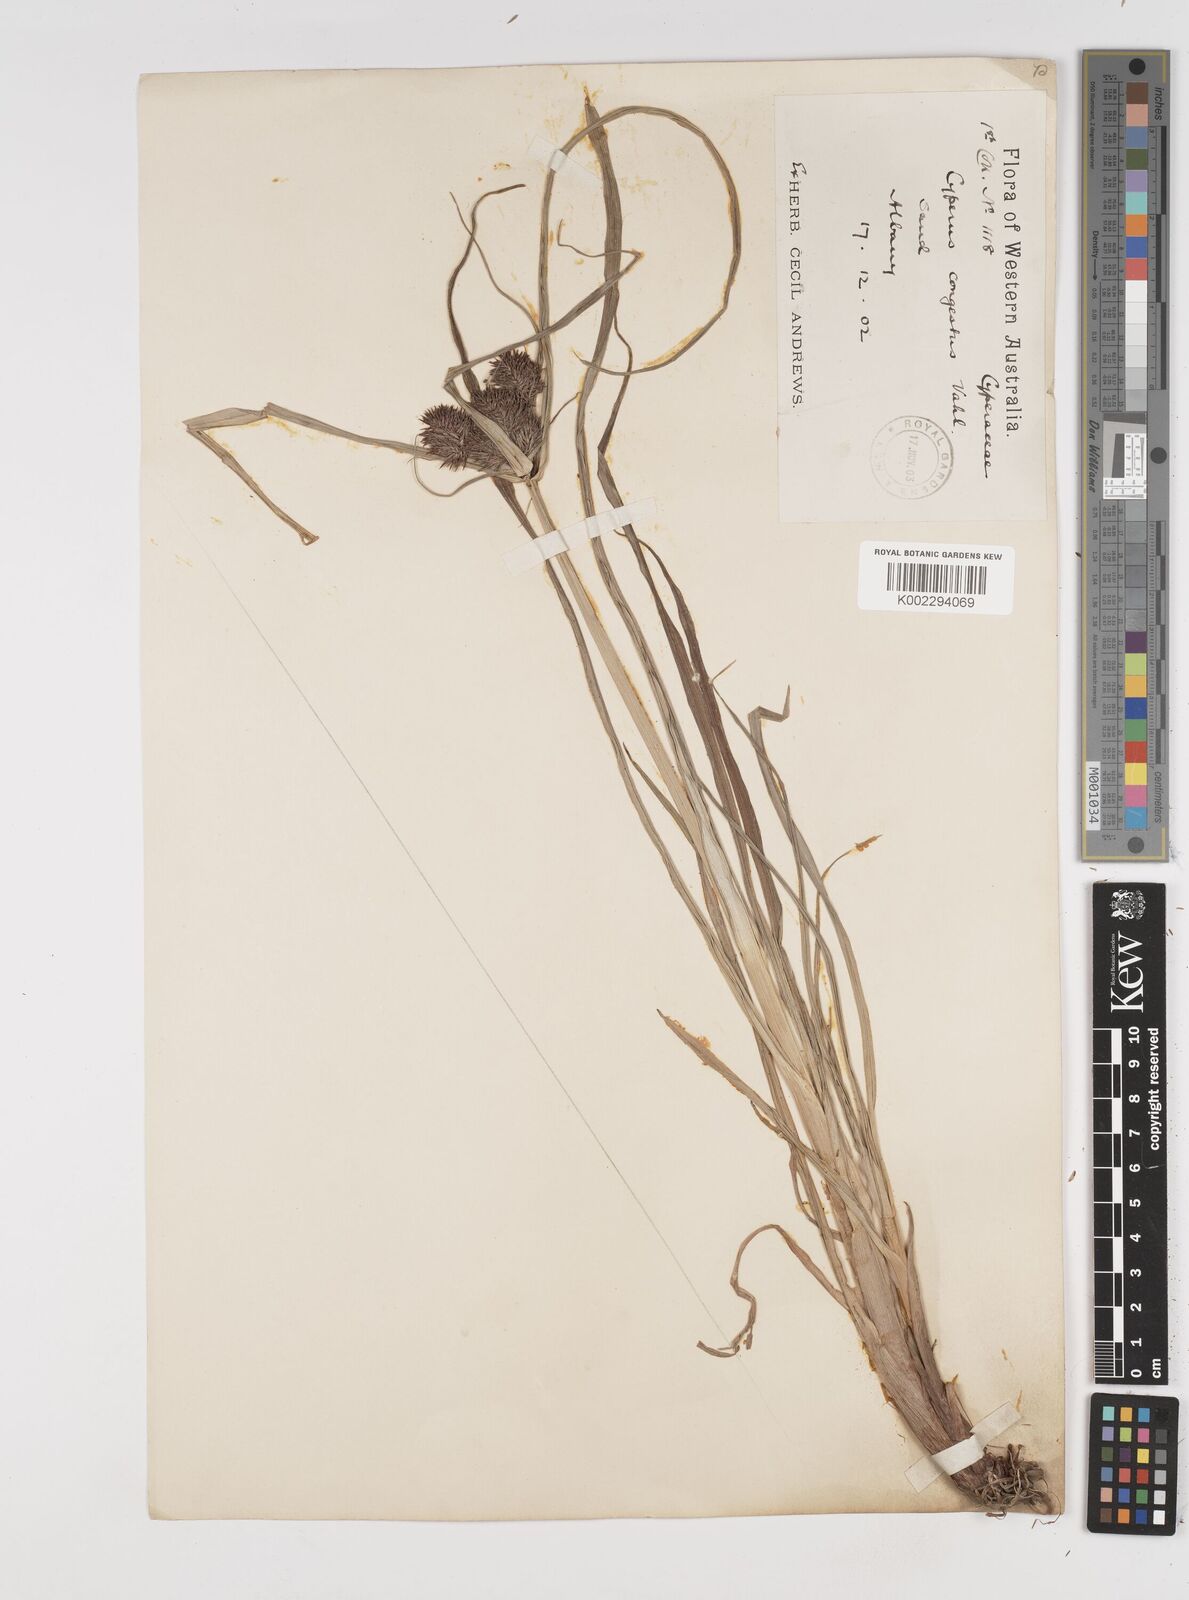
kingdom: Plantae
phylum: Tracheophyta
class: Liliopsida
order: Poales
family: Cyperaceae
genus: Cyperus
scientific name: Cyperus congestus
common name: Dense flat sedge
